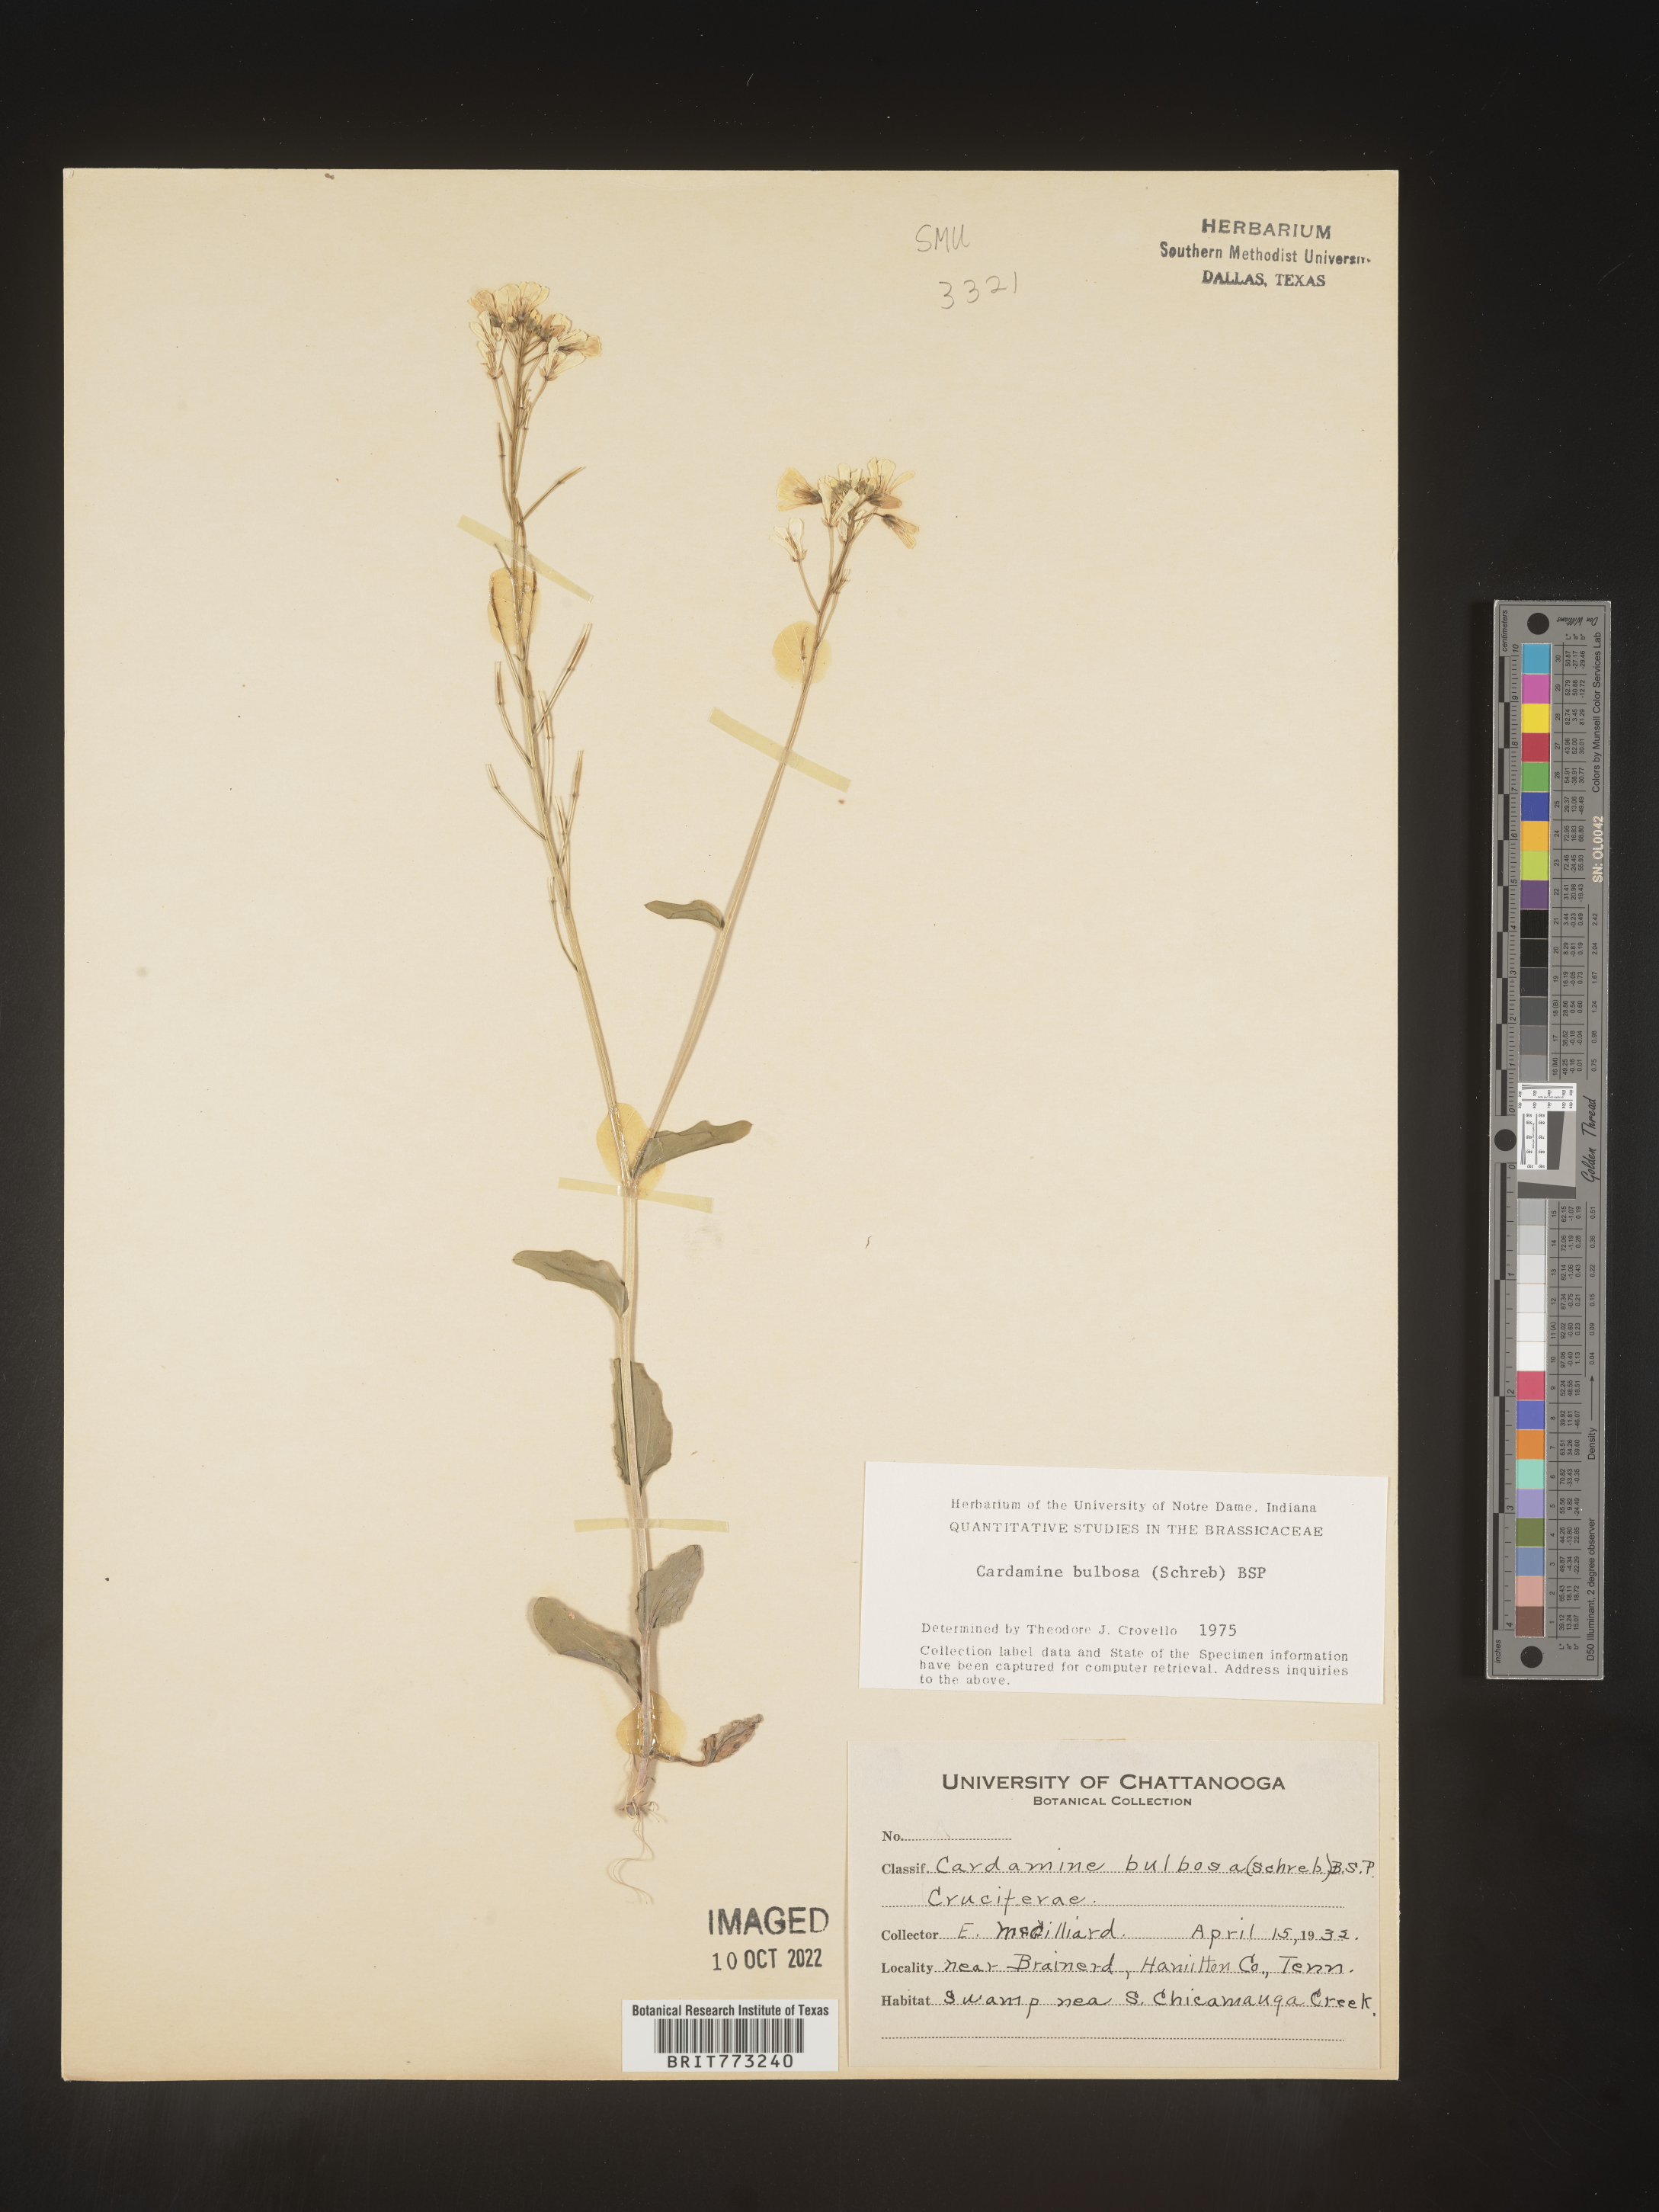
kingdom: Plantae
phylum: Tracheophyta
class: Magnoliopsida
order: Brassicales
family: Brassicaceae
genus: Cardamine
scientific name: Cardamine bulbosa
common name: Spring cress
